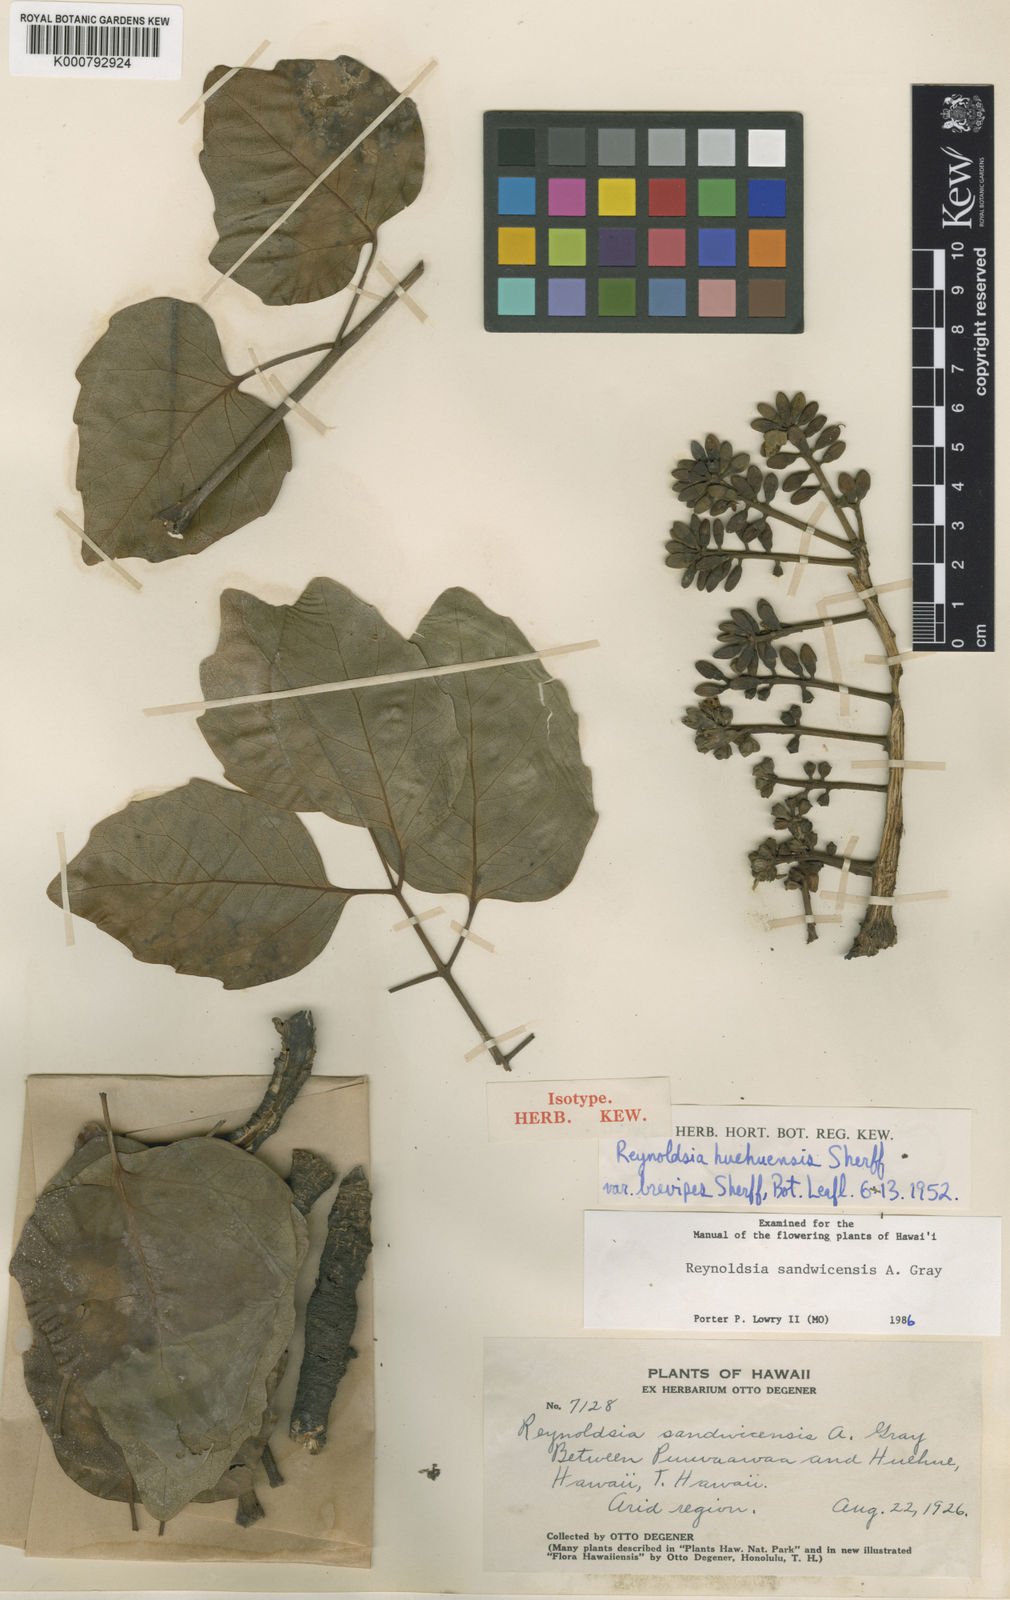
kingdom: Plantae
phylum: Tracheophyta
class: Magnoliopsida
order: Apiales
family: Araliaceae
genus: Polyscias
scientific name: Polyscias sandwicensis
